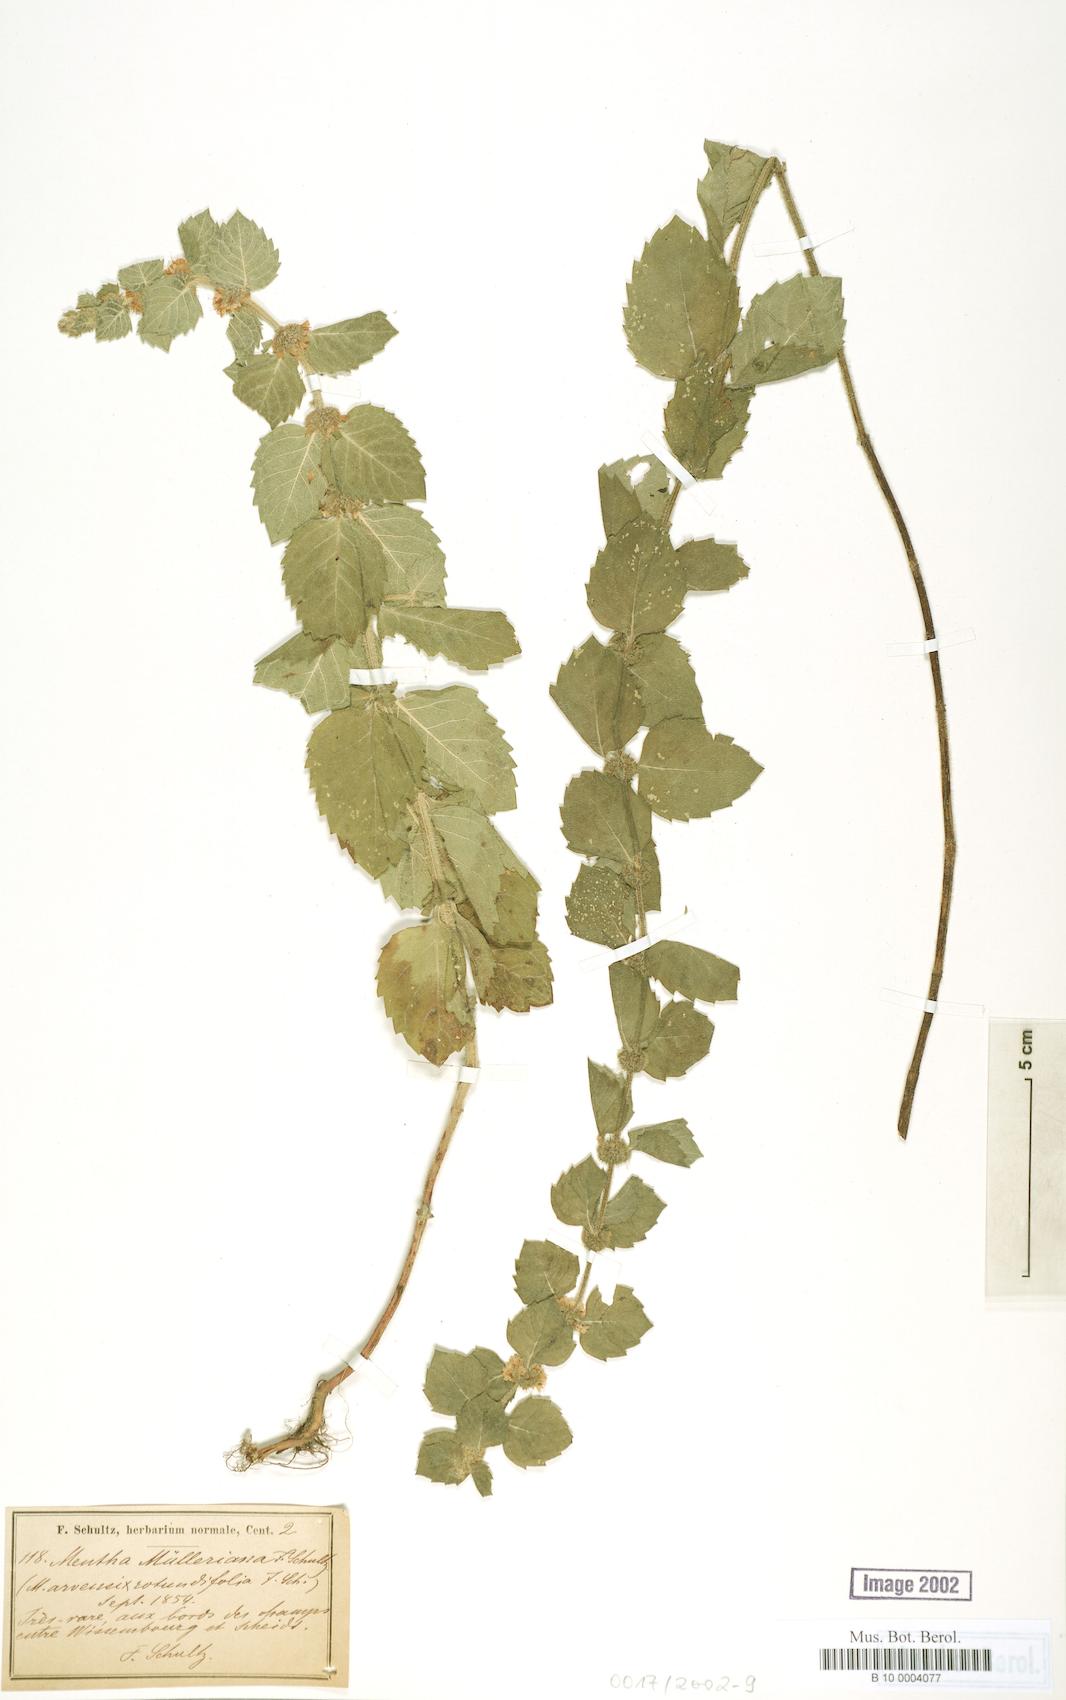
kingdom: Plantae
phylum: Tracheophyta
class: Magnoliopsida
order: Lamiales
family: Lamiaceae
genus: Mentha
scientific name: Mentha carinthiaca
